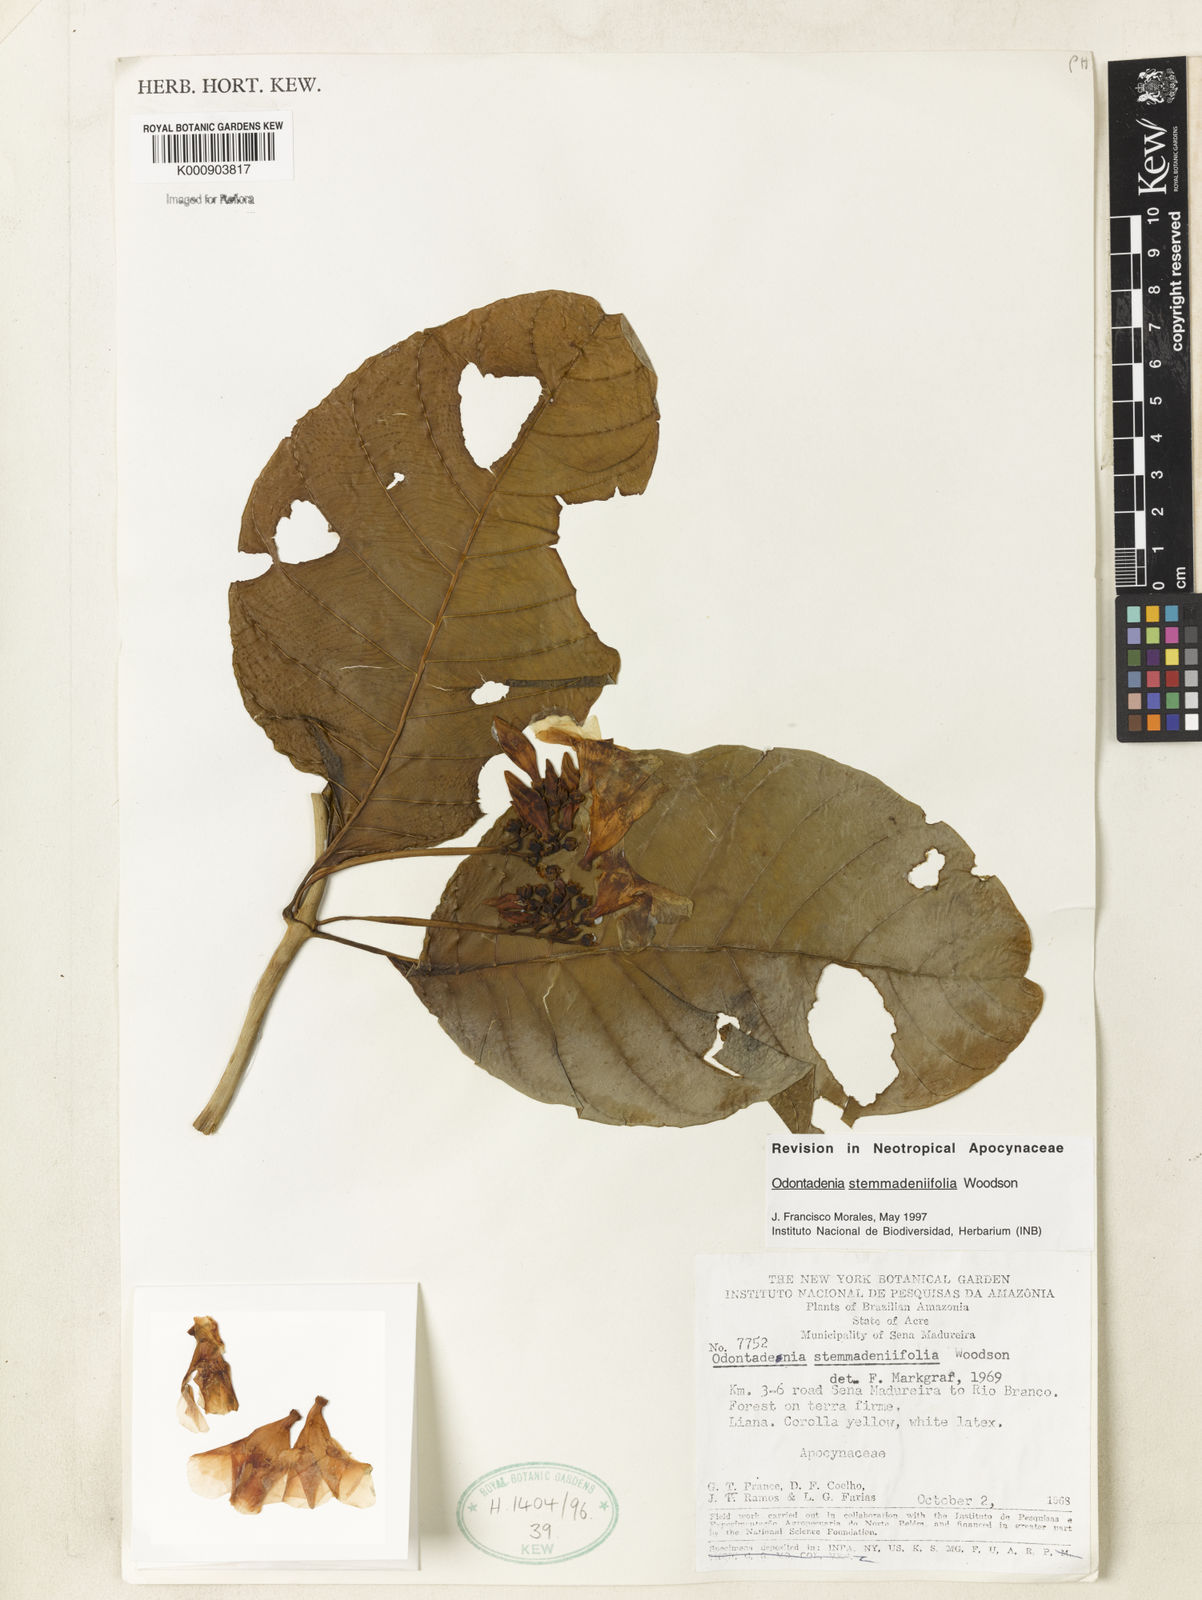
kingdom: Plantae
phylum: Tracheophyta
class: Magnoliopsida
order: Gentianales
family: Apocynaceae
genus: Odontadenia
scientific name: Odontadenia stemmadeniifolia
